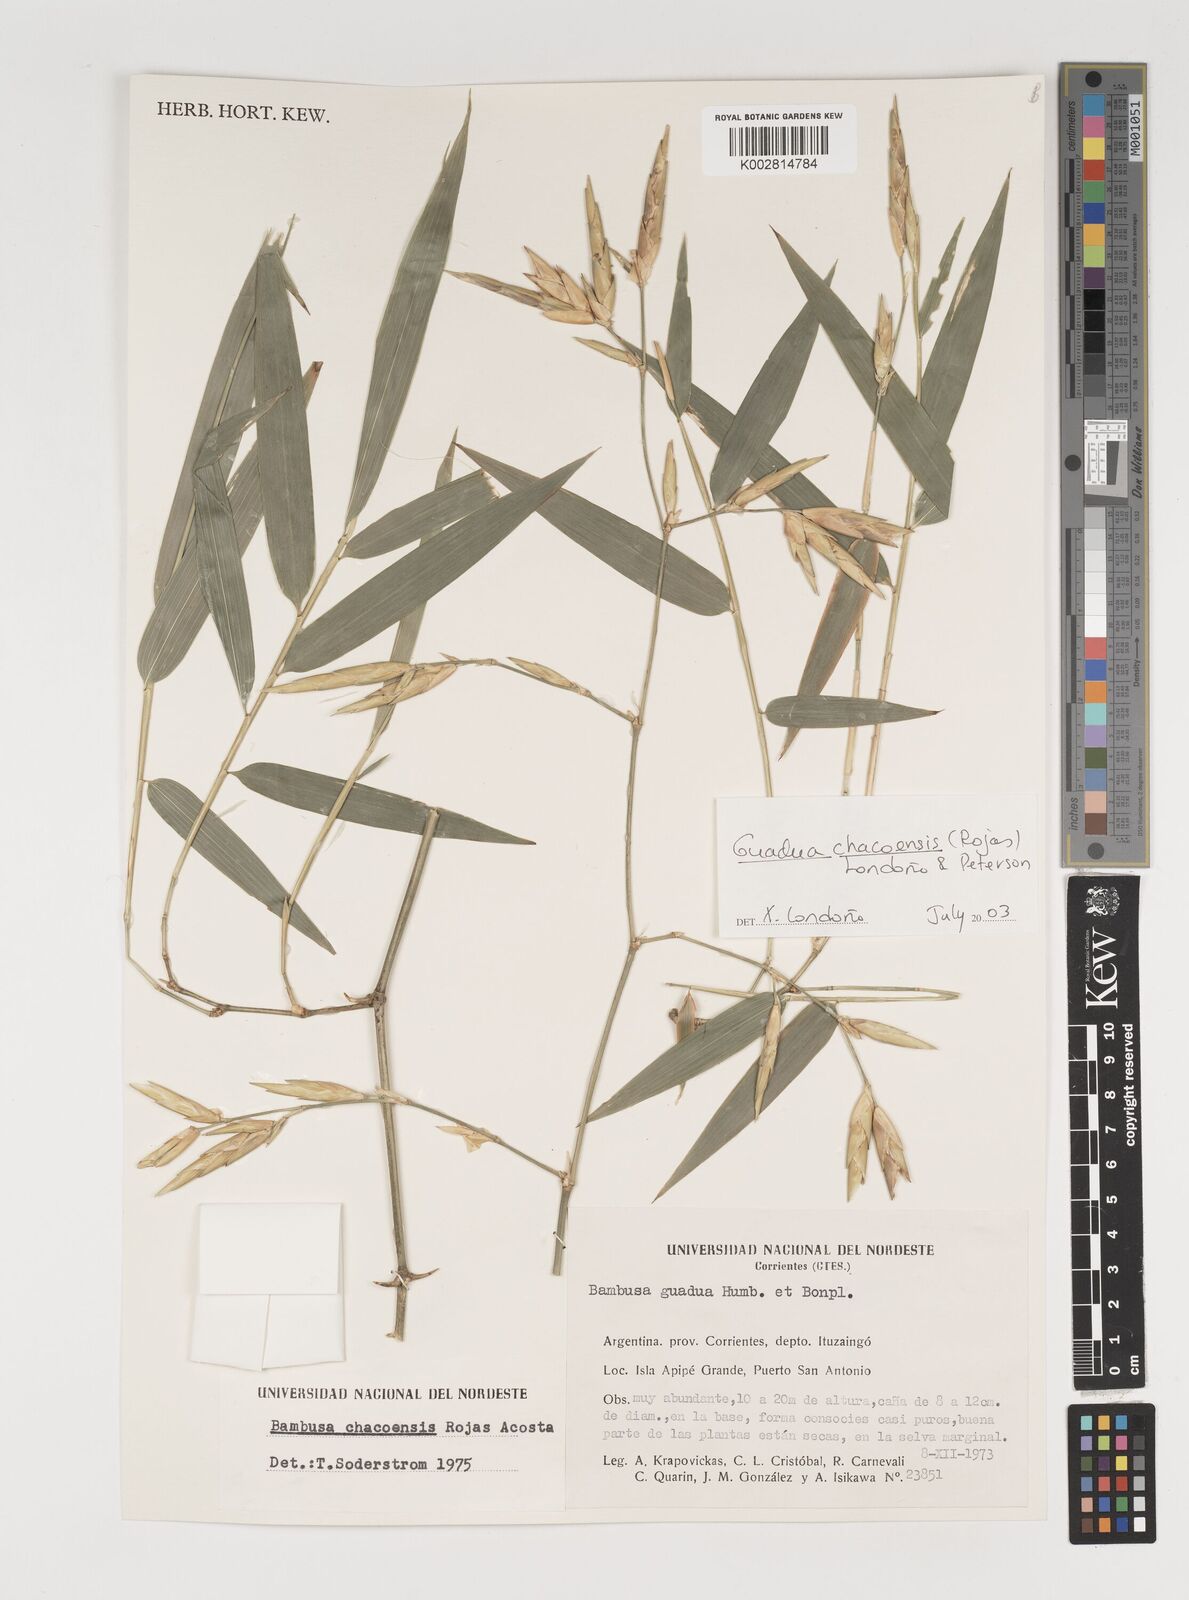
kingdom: Plantae
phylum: Tracheophyta
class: Liliopsida
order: Poales
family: Poaceae
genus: Guadua
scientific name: Guadua chacoensis
